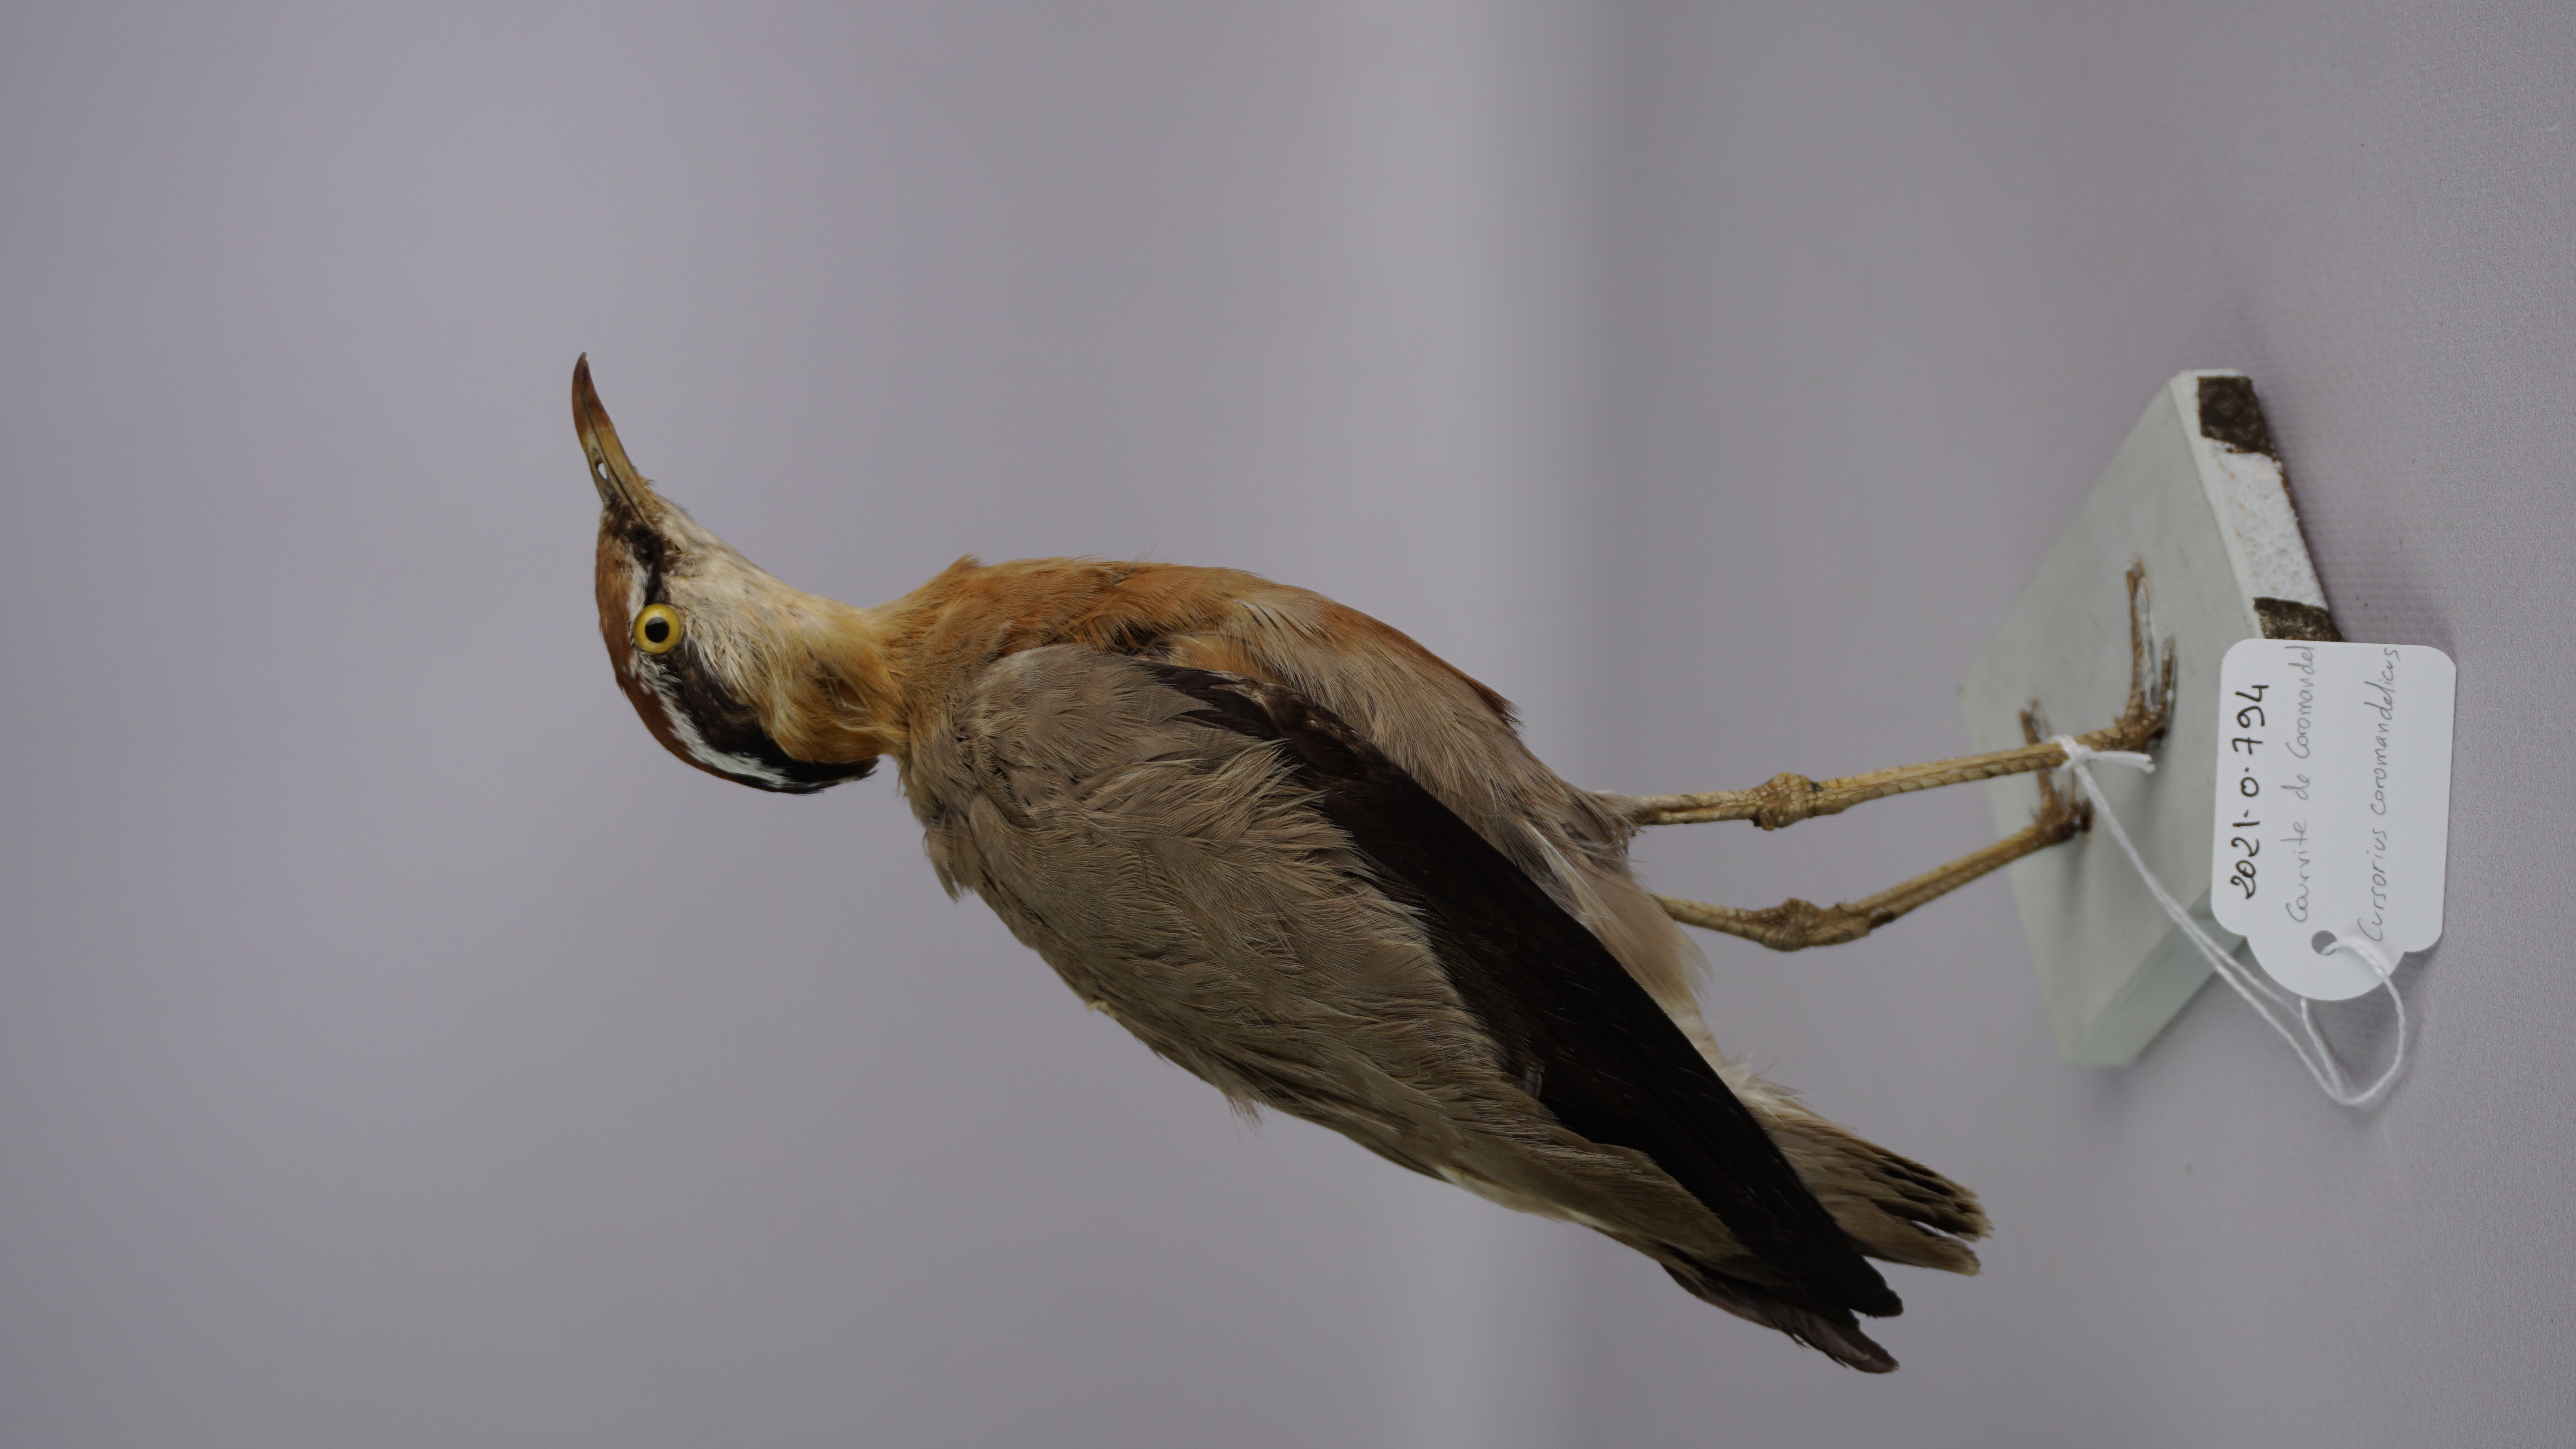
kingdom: Animalia
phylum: Chordata
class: Aves
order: Charadriiformes
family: Glareolidae
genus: Cursorius
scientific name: Cursorius coromandelicus
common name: Indian courser
